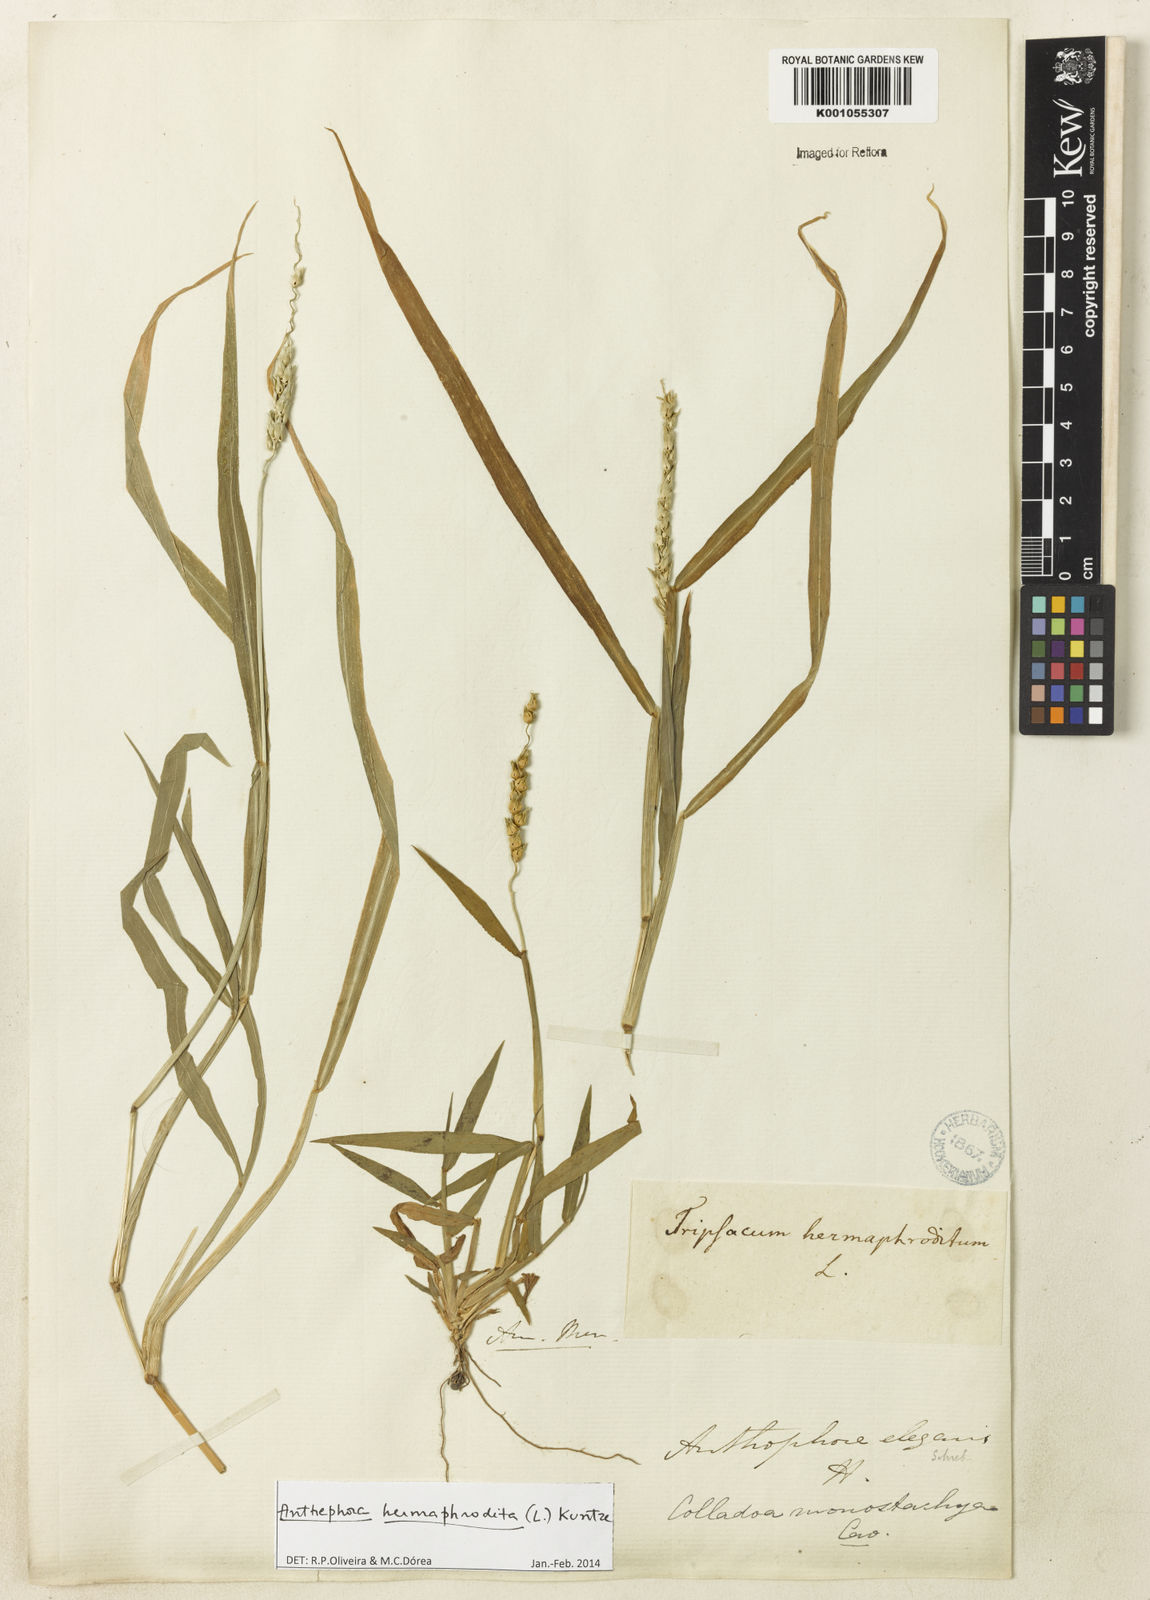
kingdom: Plantae
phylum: Tracheophyta
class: Liliopsida
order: Poales
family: Poaceae
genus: Anthephora
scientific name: Anthephora hermaphrodita
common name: Oldfield grass
